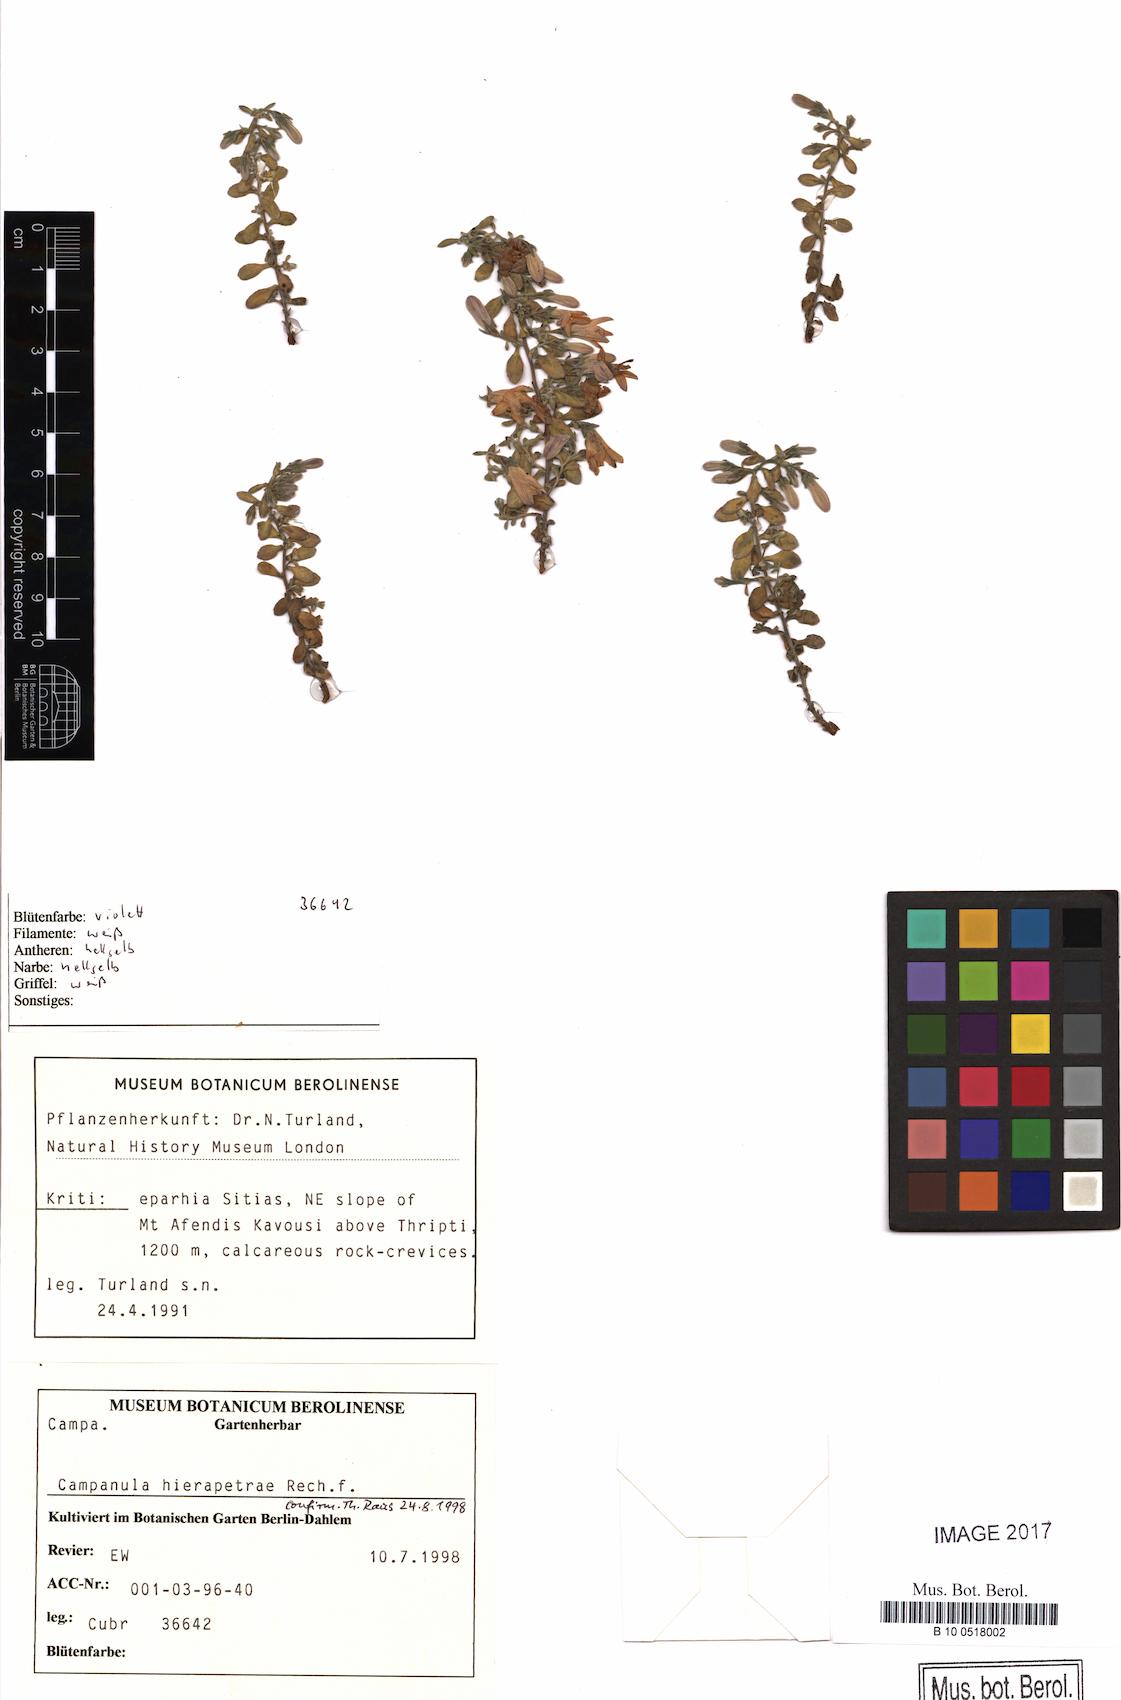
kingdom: Plantae
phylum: Tracheophyta
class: Magnoliopsida
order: Caryophyllales
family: Caryophyllaceae
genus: Sagina
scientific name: Sagina maritima
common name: Sea pearlwort
